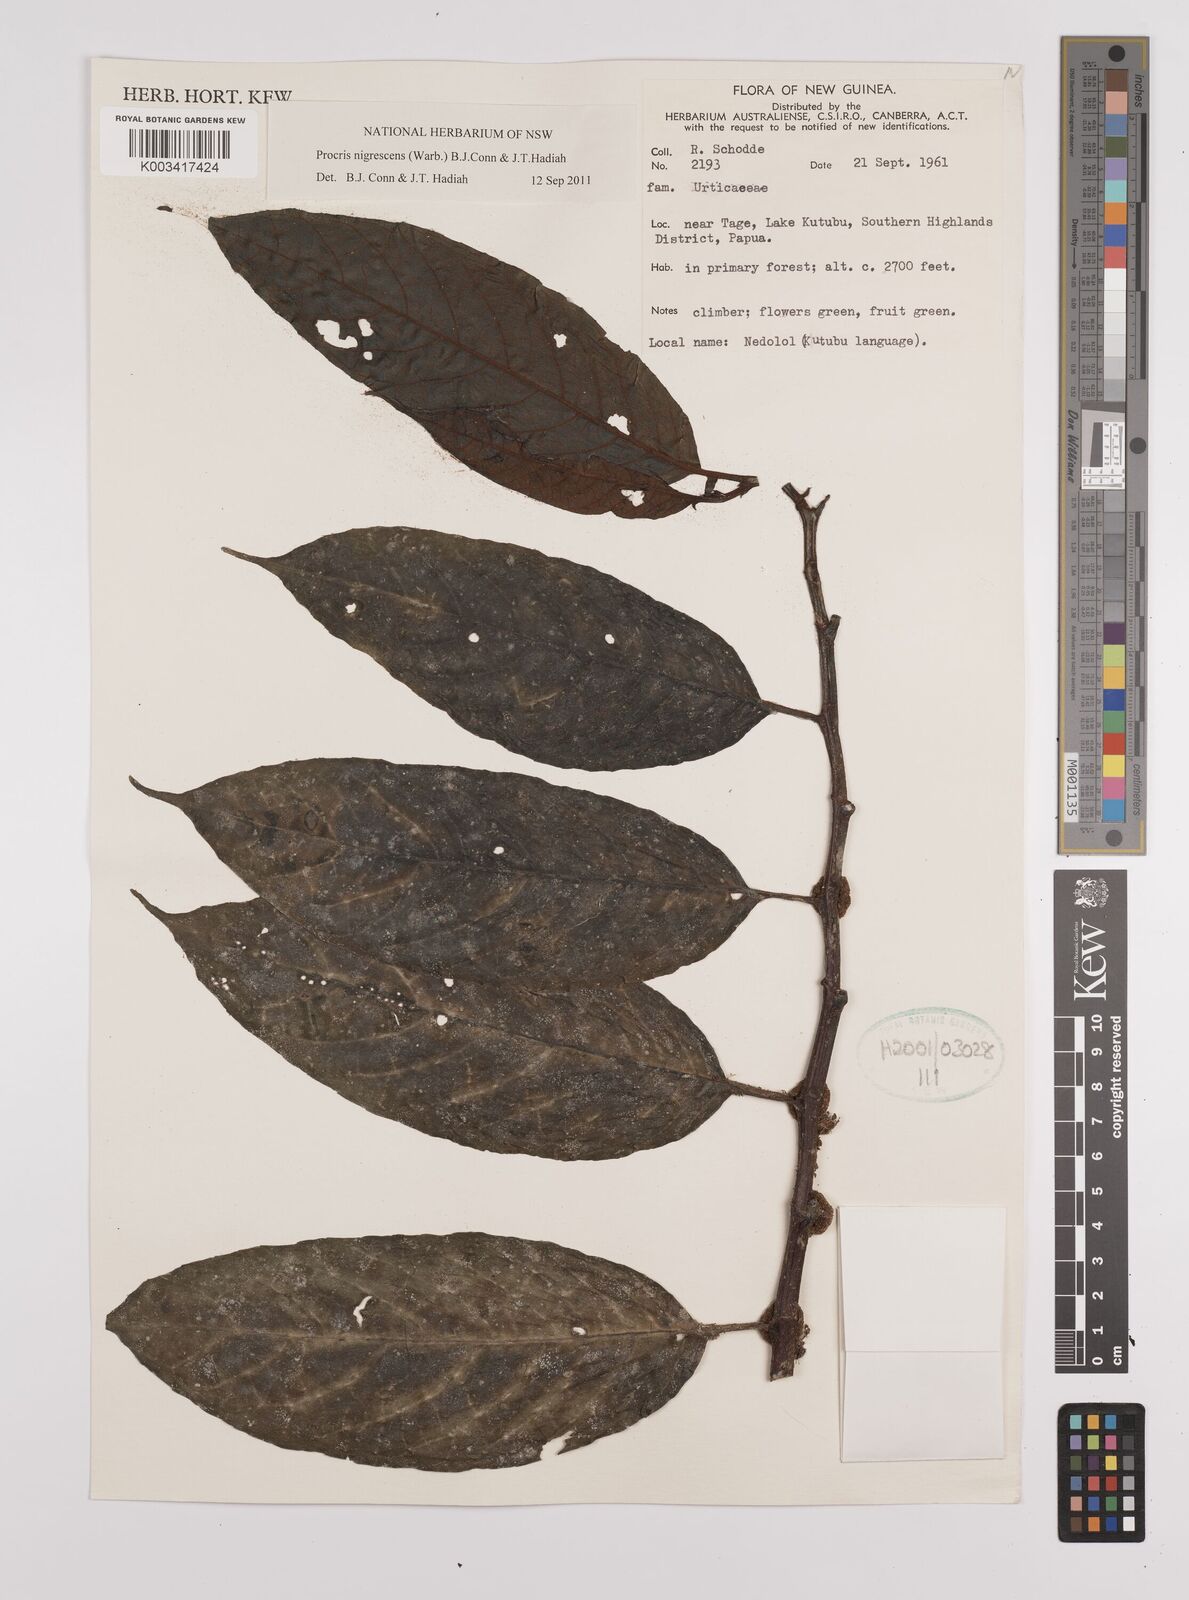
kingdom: Plantae
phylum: Tracheophyta
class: Magnoliopsida
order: Rosales
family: Urticaceae
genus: Procris
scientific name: Procris
